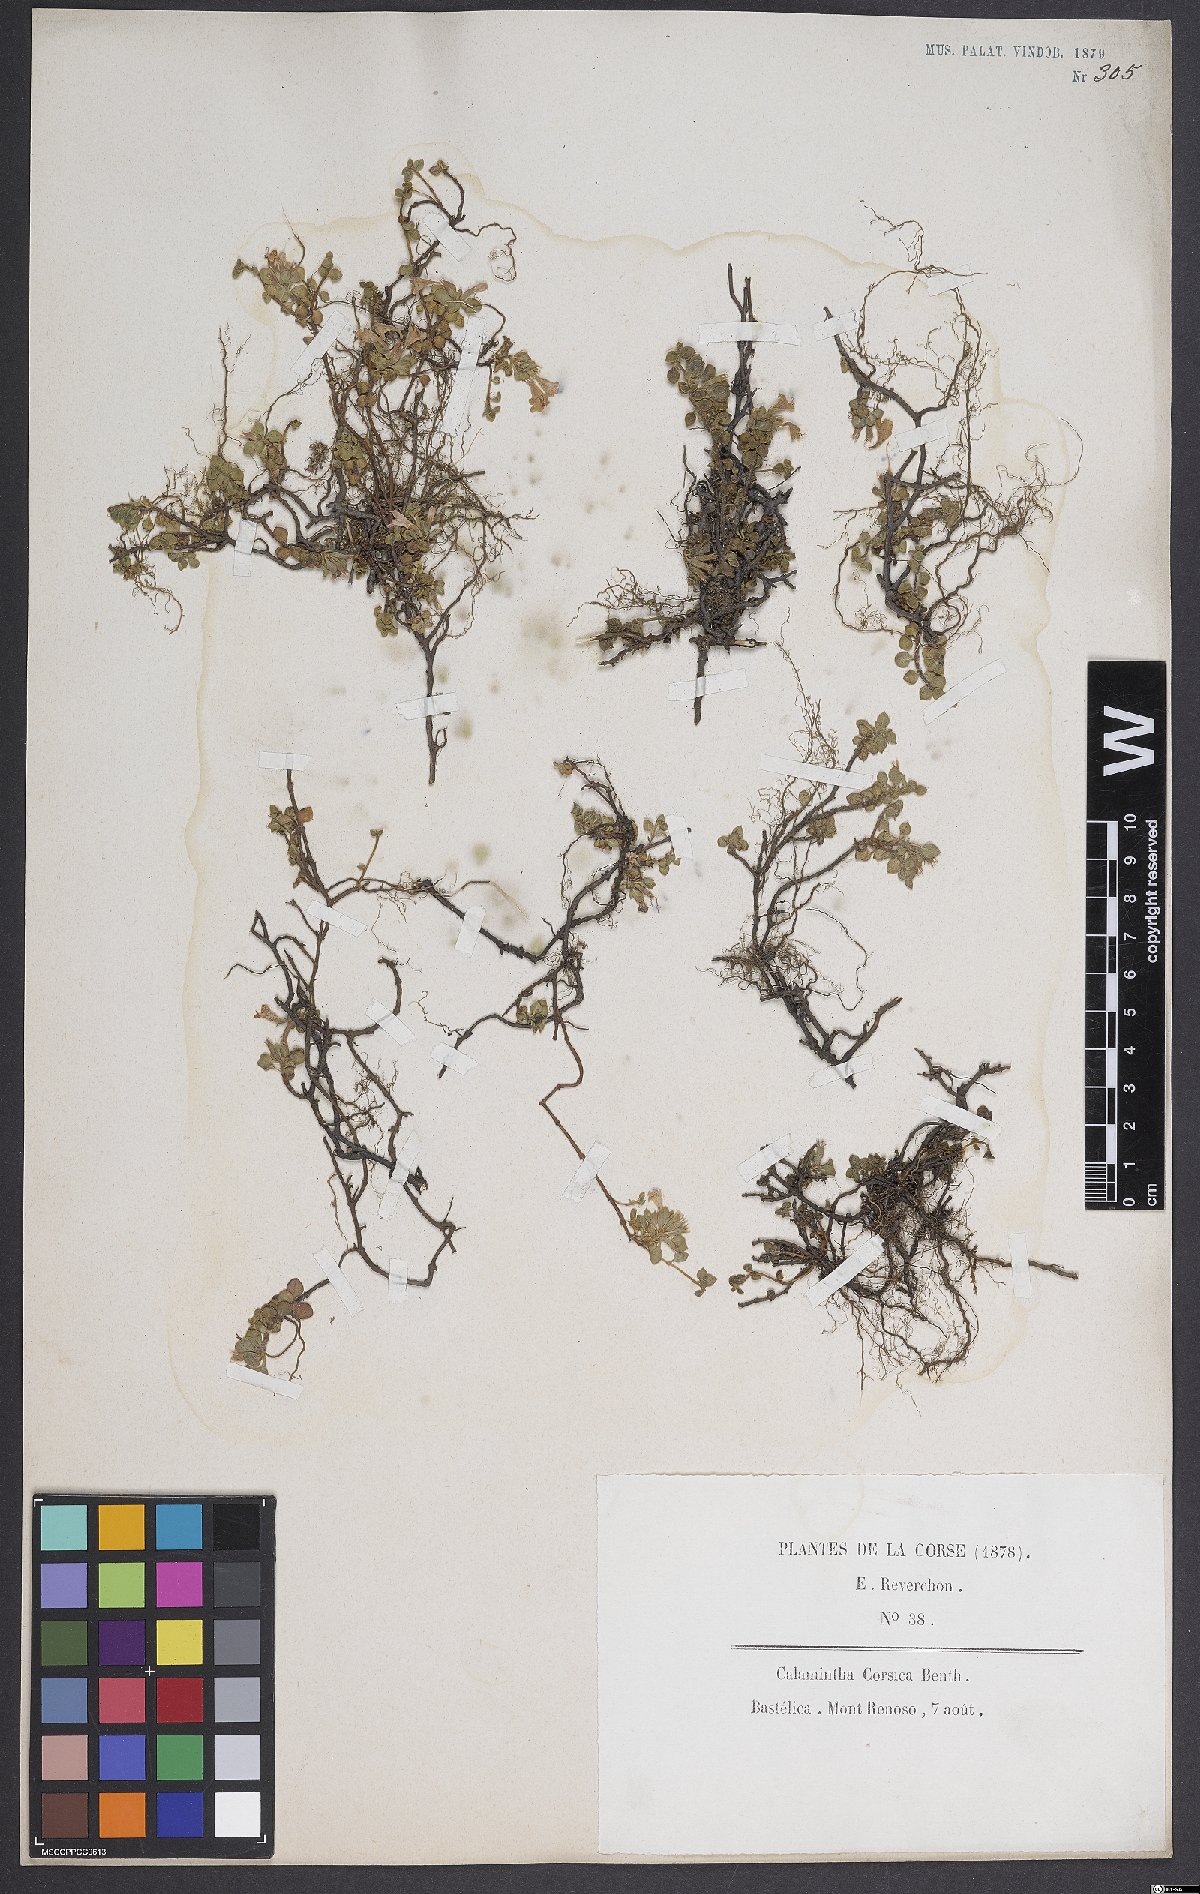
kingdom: Plantae
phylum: Tracheophyta
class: Magnoliopsida
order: Lamiales
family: Lamiaceae
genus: Calamintha
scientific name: Calamintha
